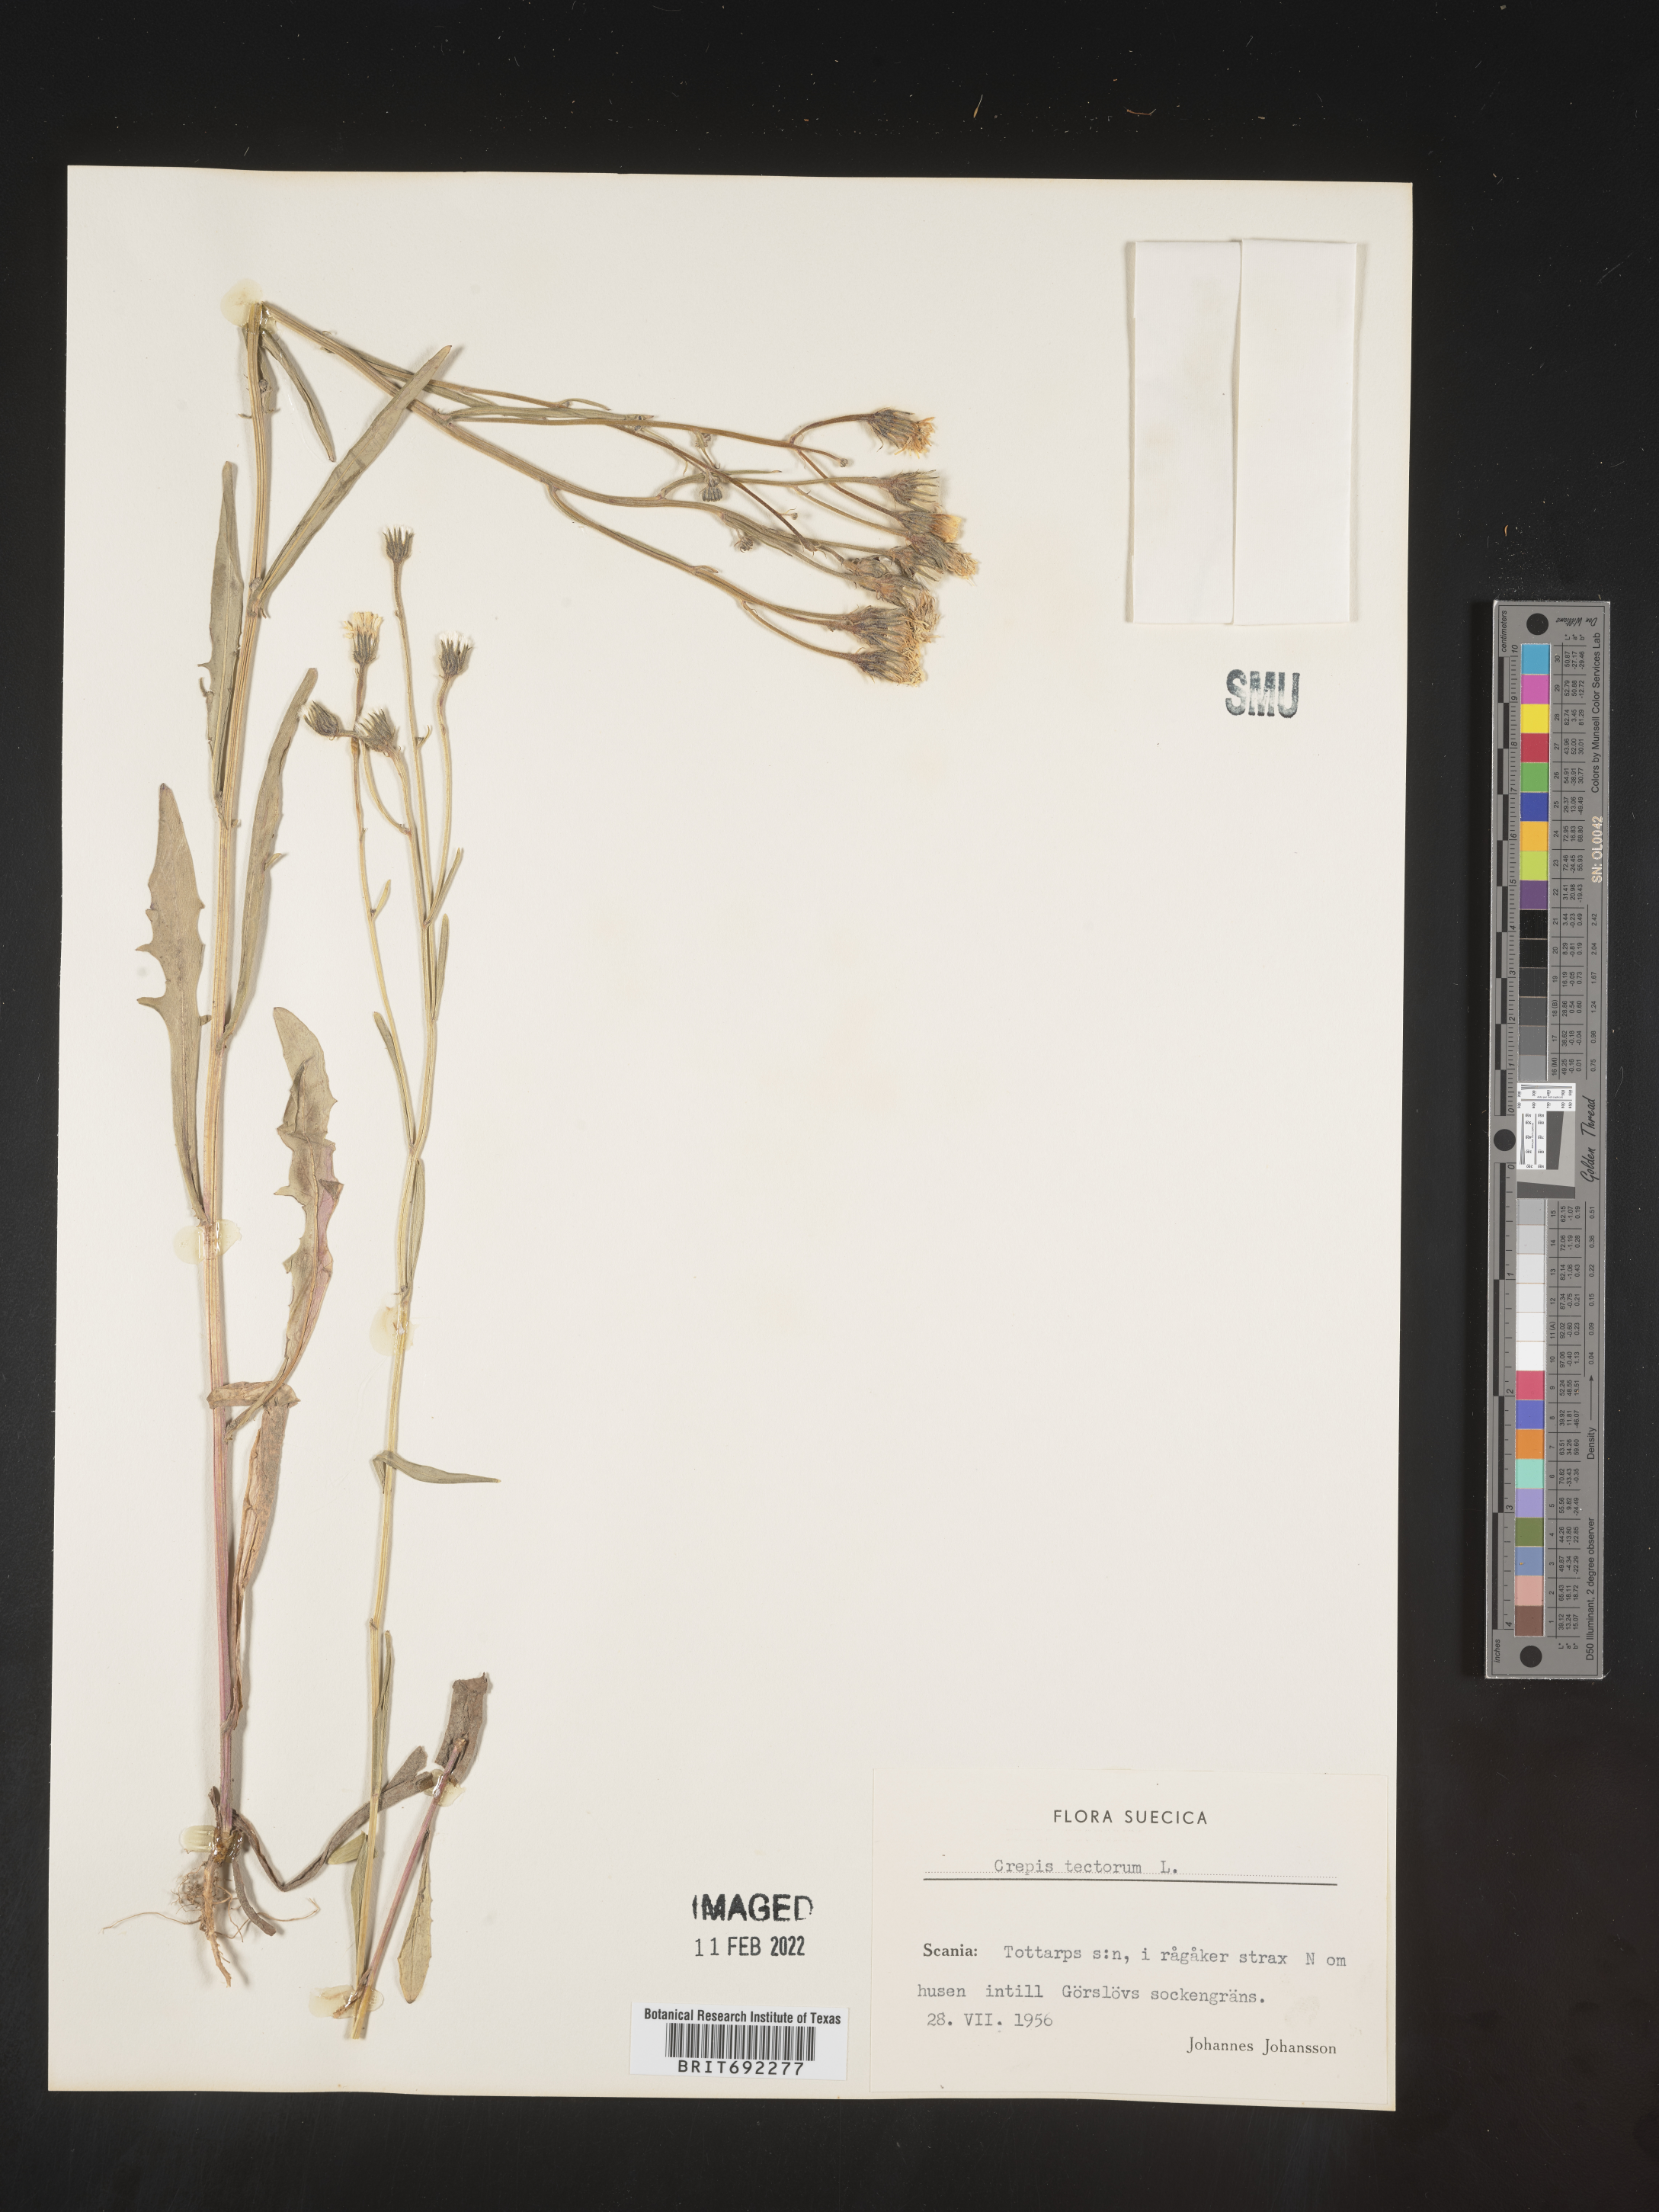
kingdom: Plantae
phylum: Tracheophyta
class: Magnoliopsida
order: Asterales
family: Asteraceae
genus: Crepis
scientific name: Crepis
